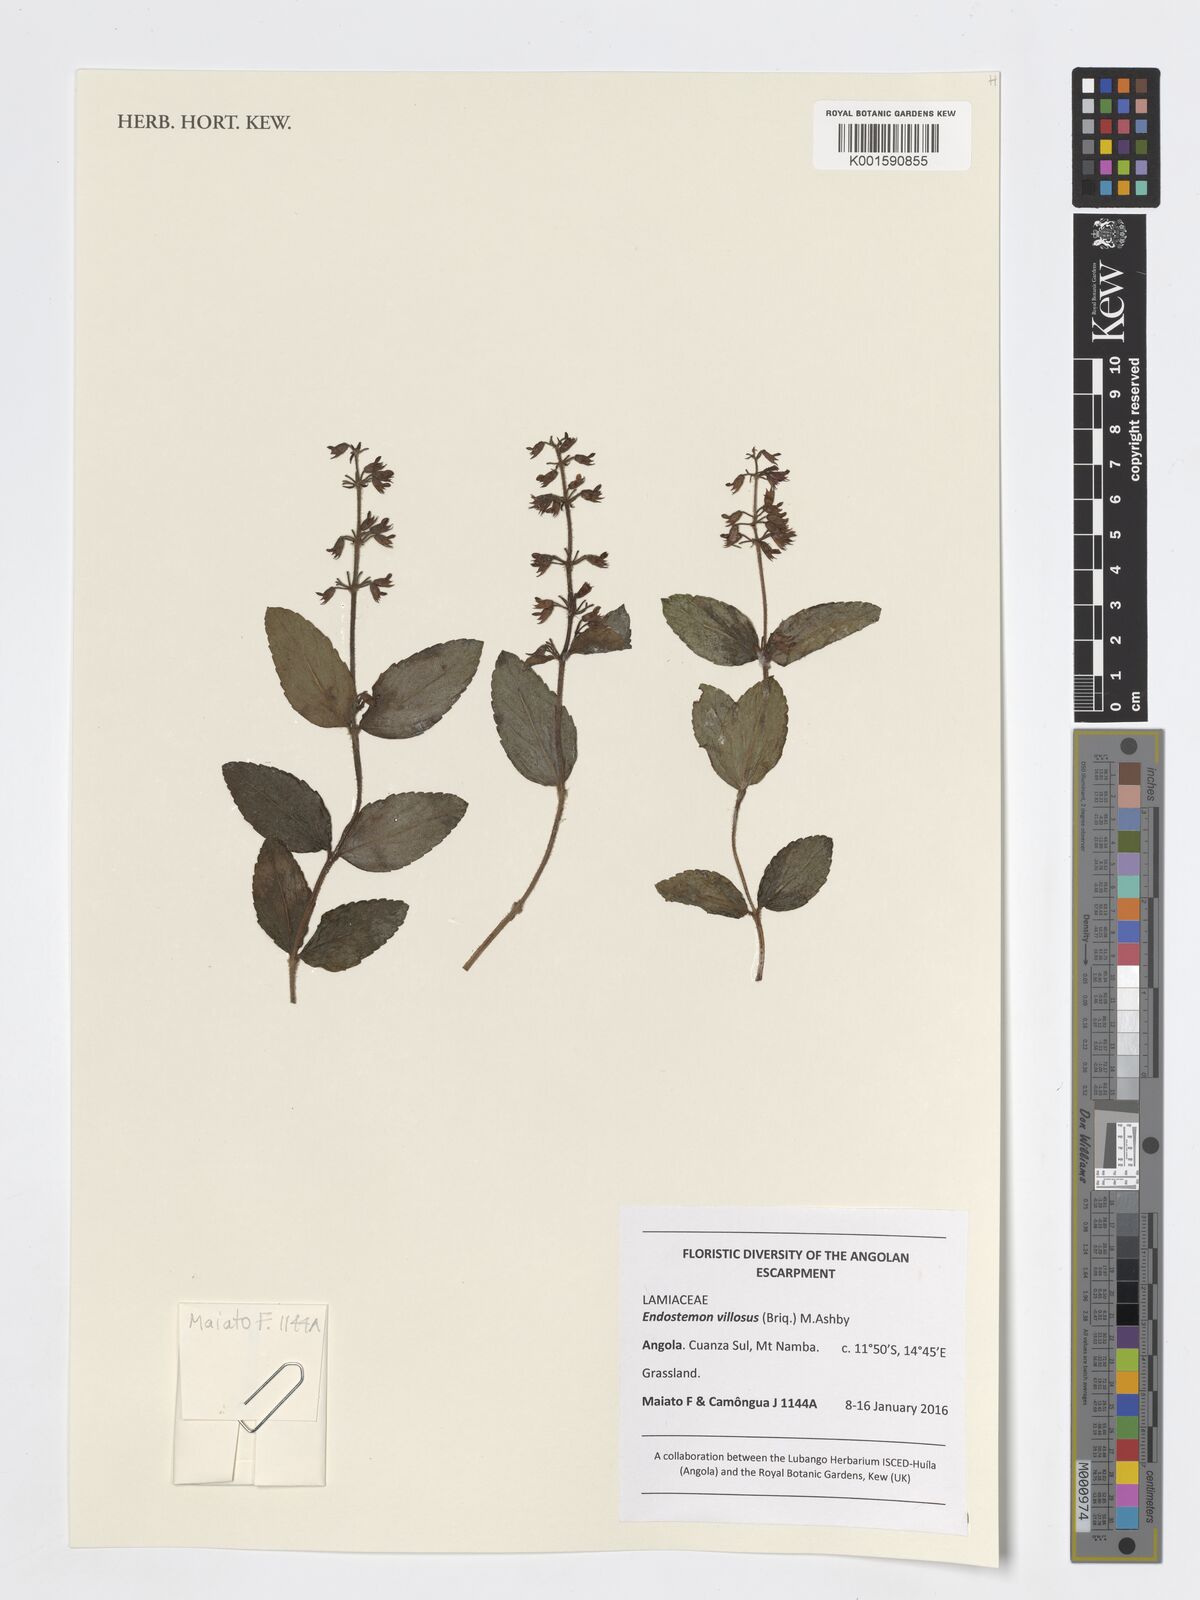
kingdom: Plantae
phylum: Tracheophyta
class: Magnoliopsida
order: Lamiales
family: Lamiaceae
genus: Endostemon
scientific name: Endostemon villosus
